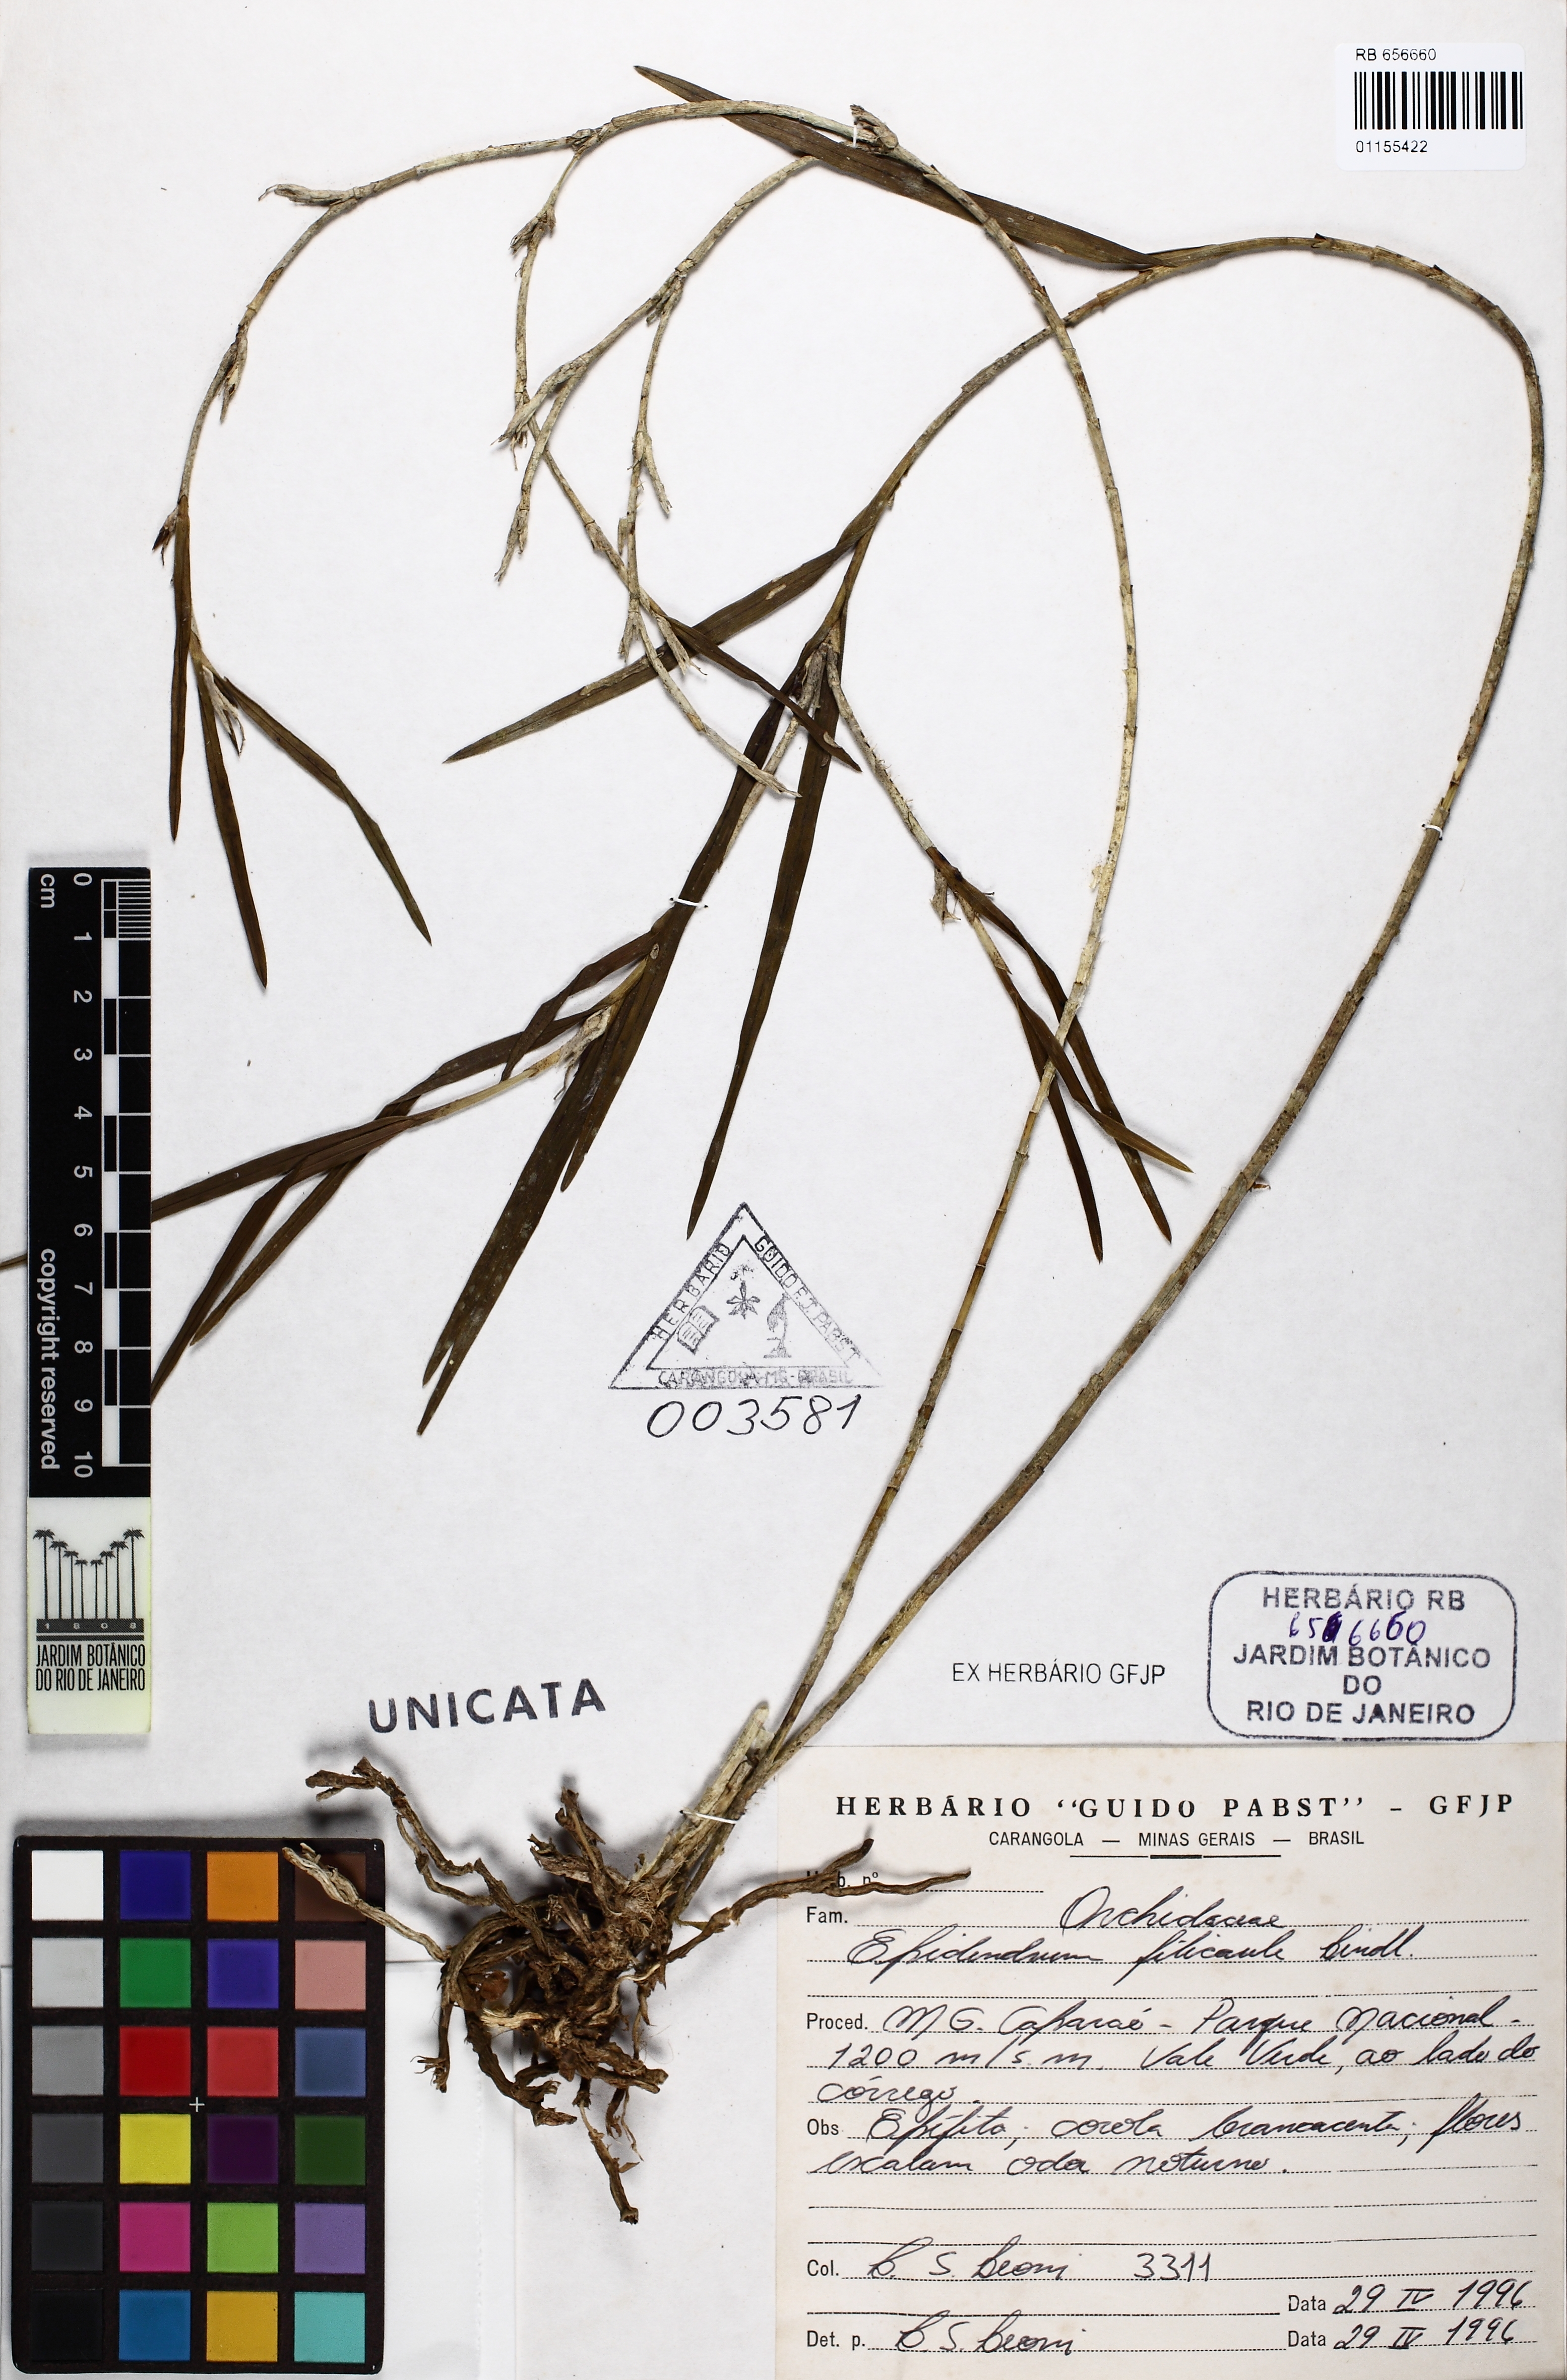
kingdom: Plantae
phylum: Tracheophyta
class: Liliopsida
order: Asparagales
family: Orchidaceae
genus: Epidendrum
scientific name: Epidendrum filicaule
